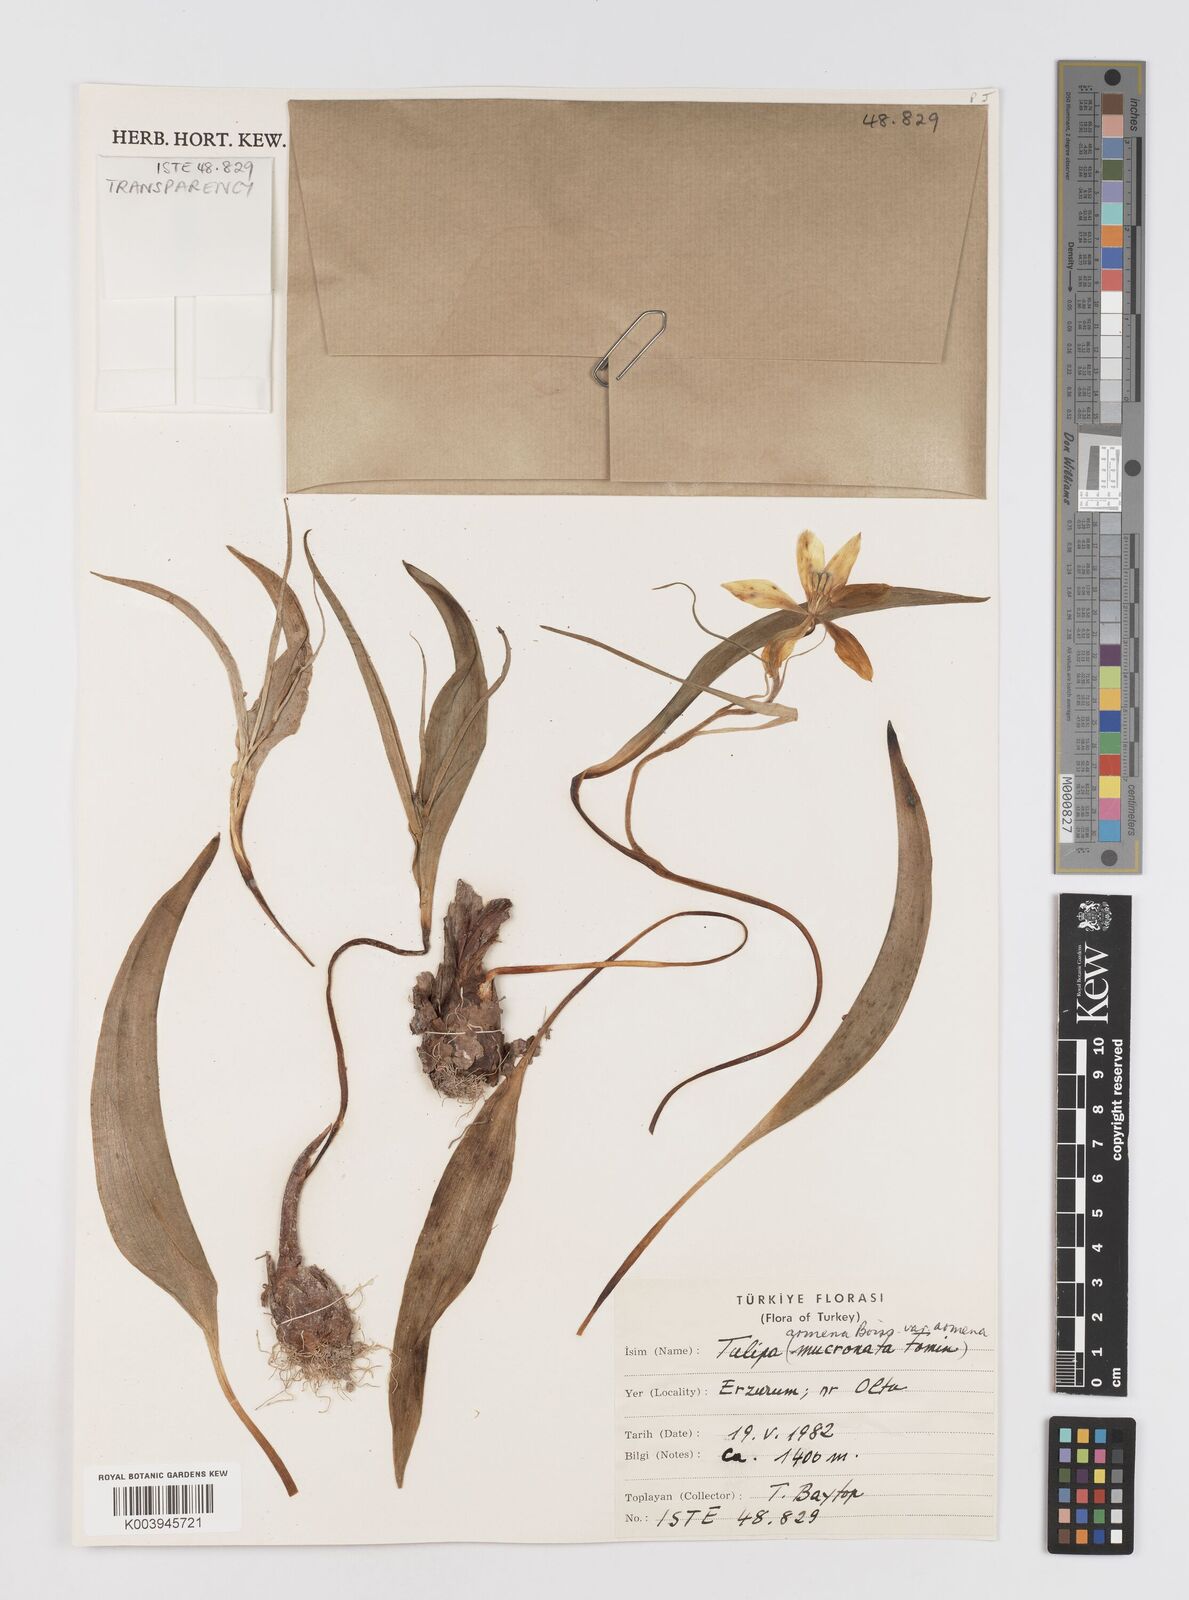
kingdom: Plantae
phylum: Tracheophyta
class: Liliopsida
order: Liliales
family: Liliaceae
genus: Tulipa
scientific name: Tulipa armena
